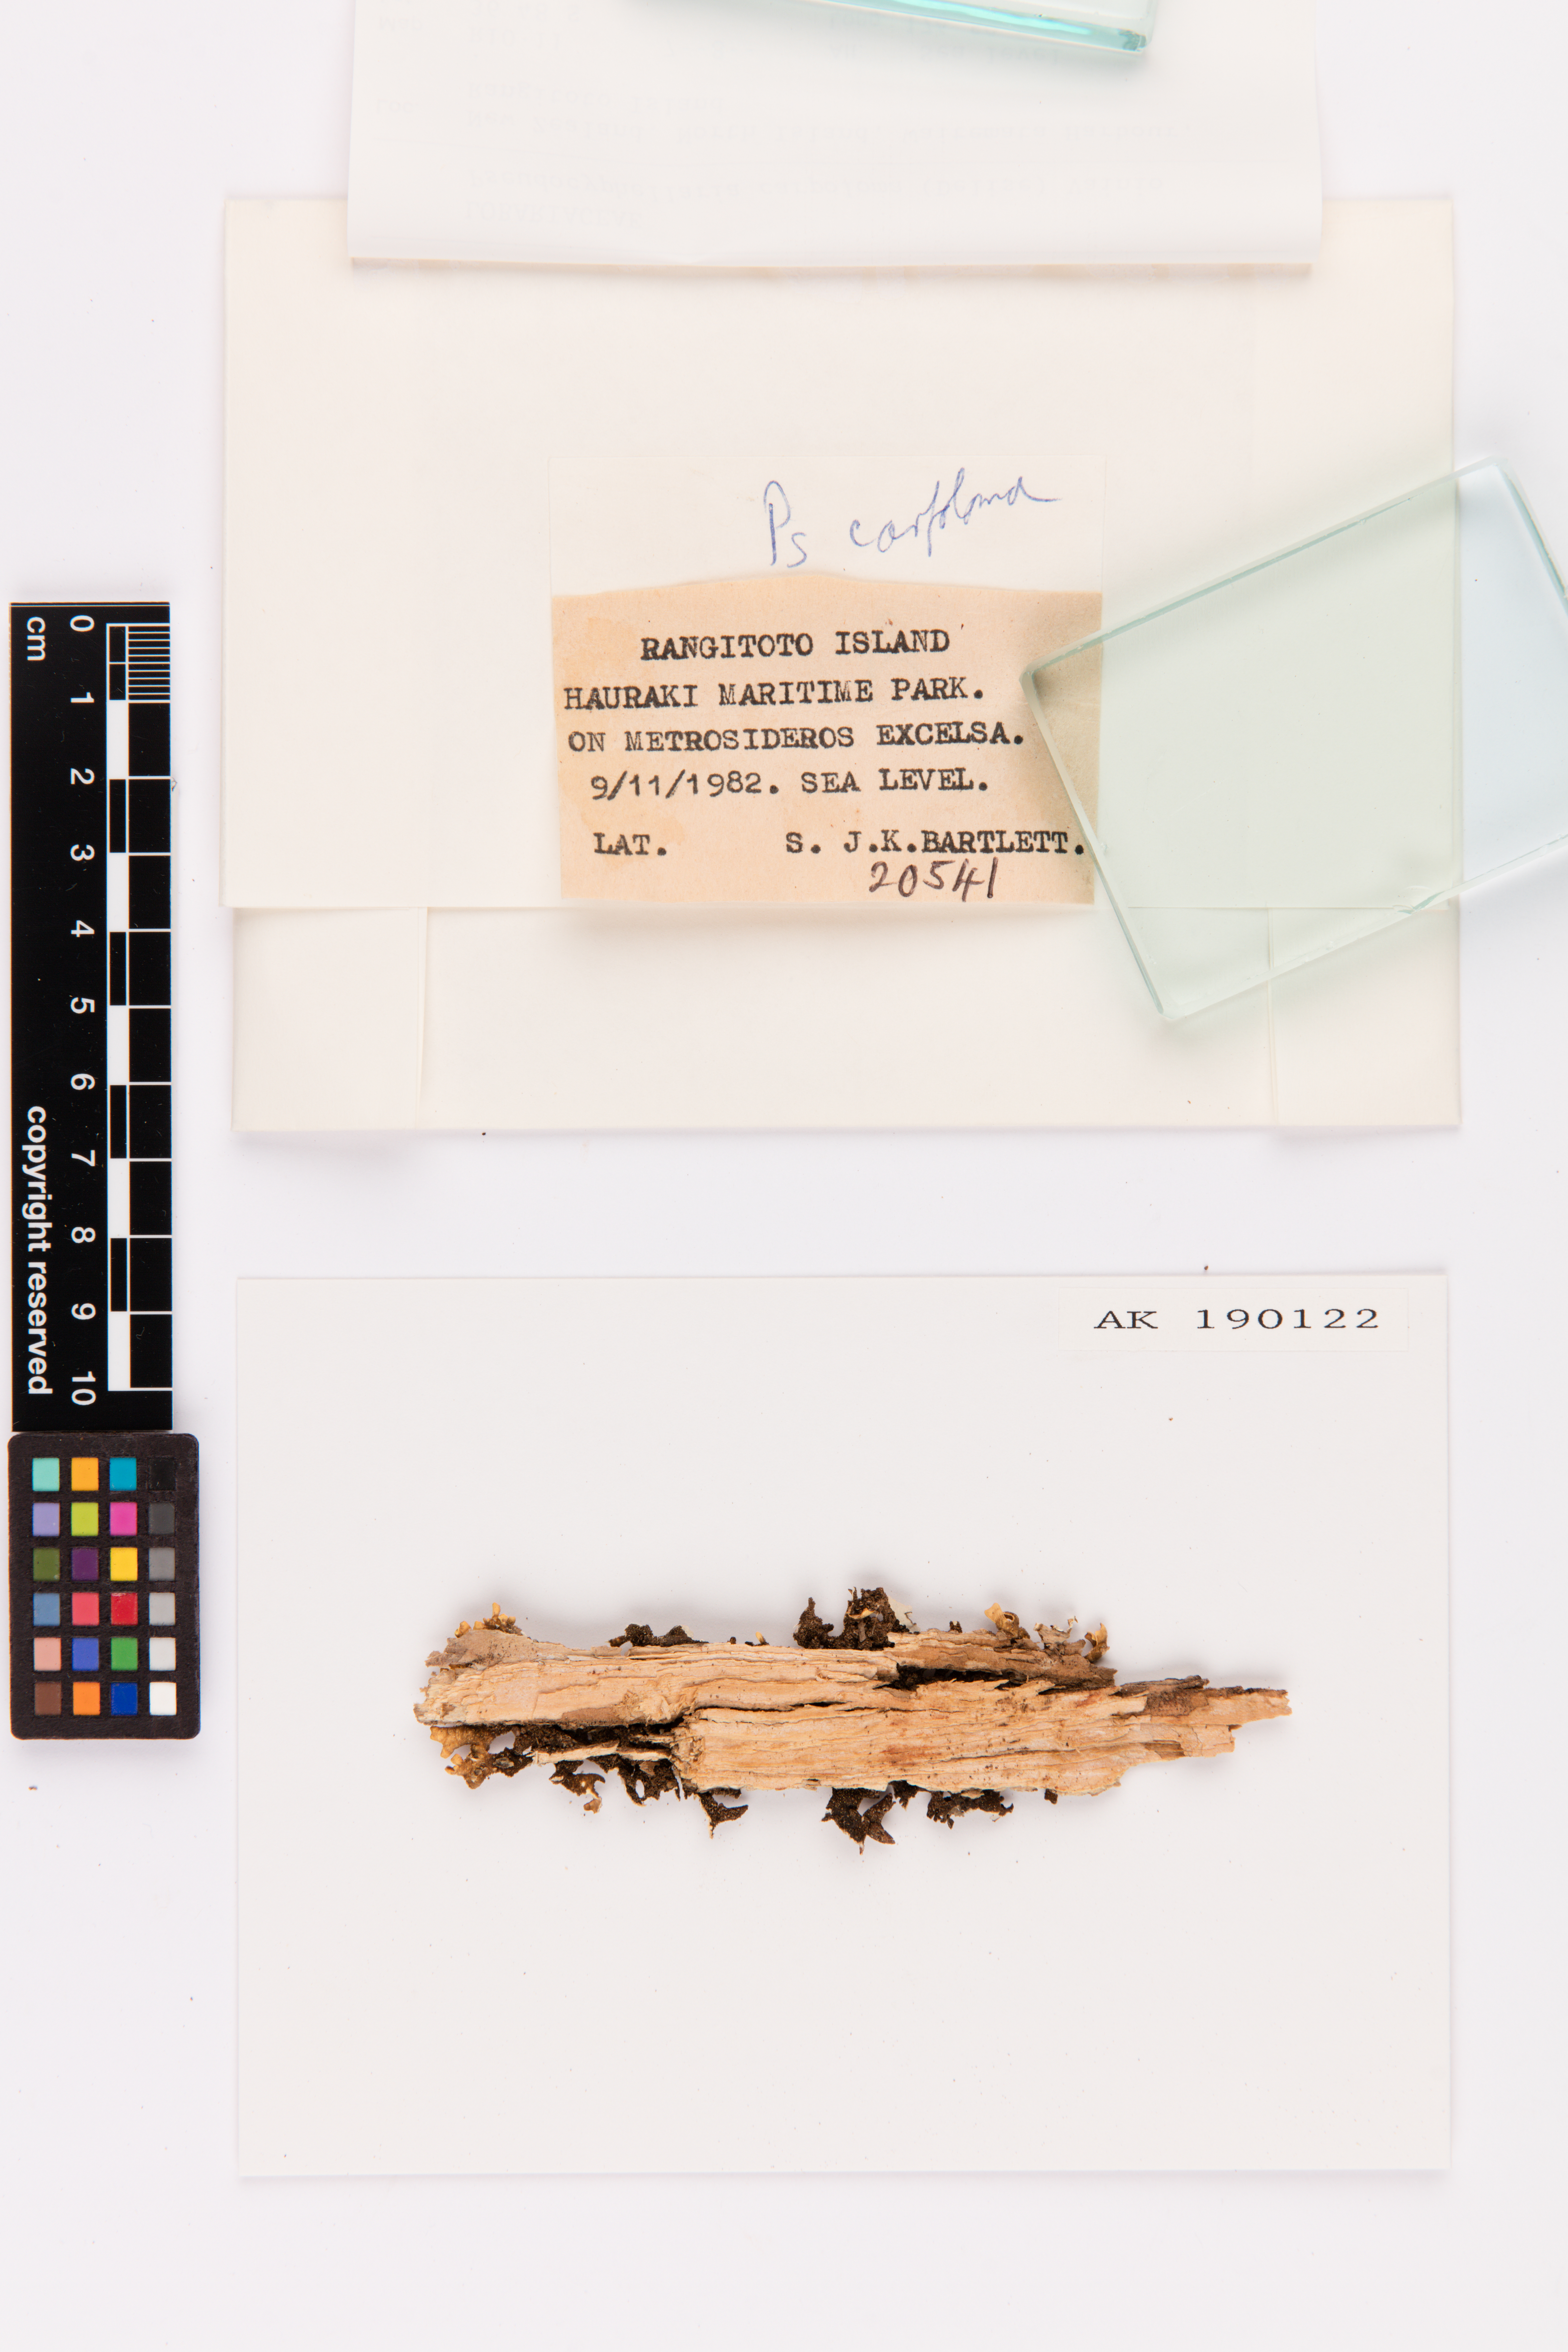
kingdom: Fungi
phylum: Ascomycota
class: Lecanoromycetes
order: Peltigerales
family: Lobariaceae
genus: Pseudocyphellaria
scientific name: Pseudocyphellaria carpoloma
